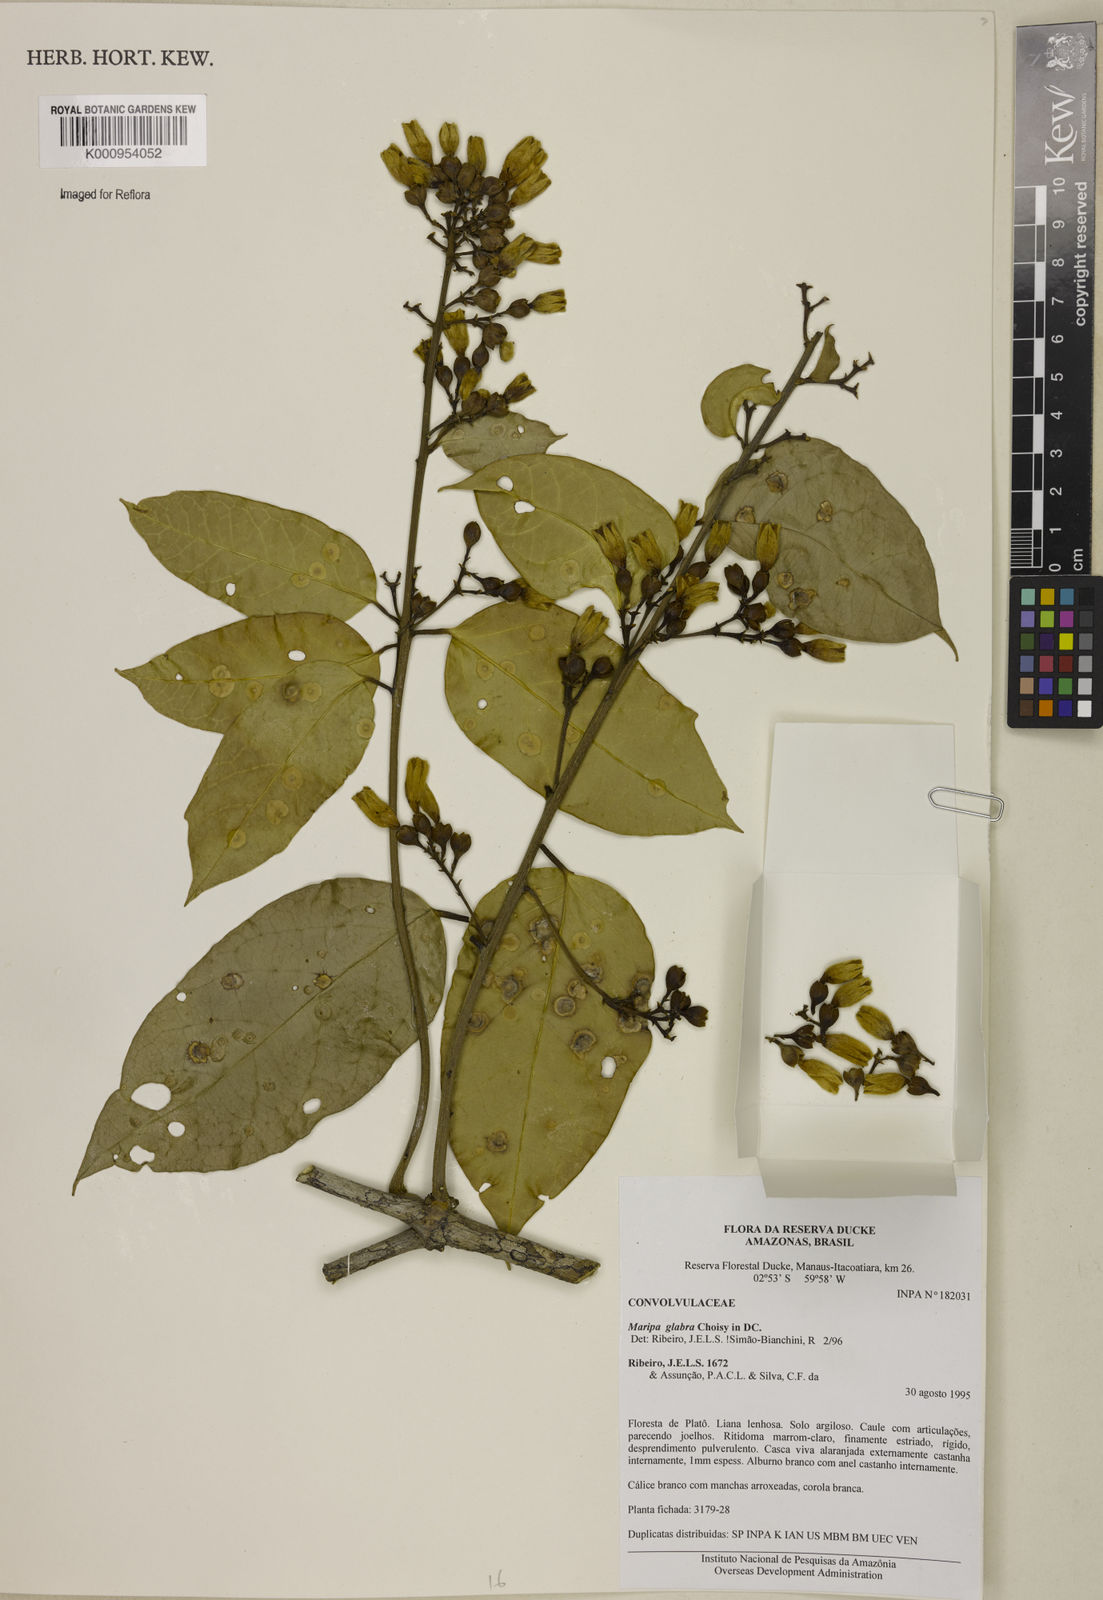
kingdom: Plantae
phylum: Tracheophyta
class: Magnoliopsida
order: Solanales
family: Convolvulaceae
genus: Maripa
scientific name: Maripa glabra
